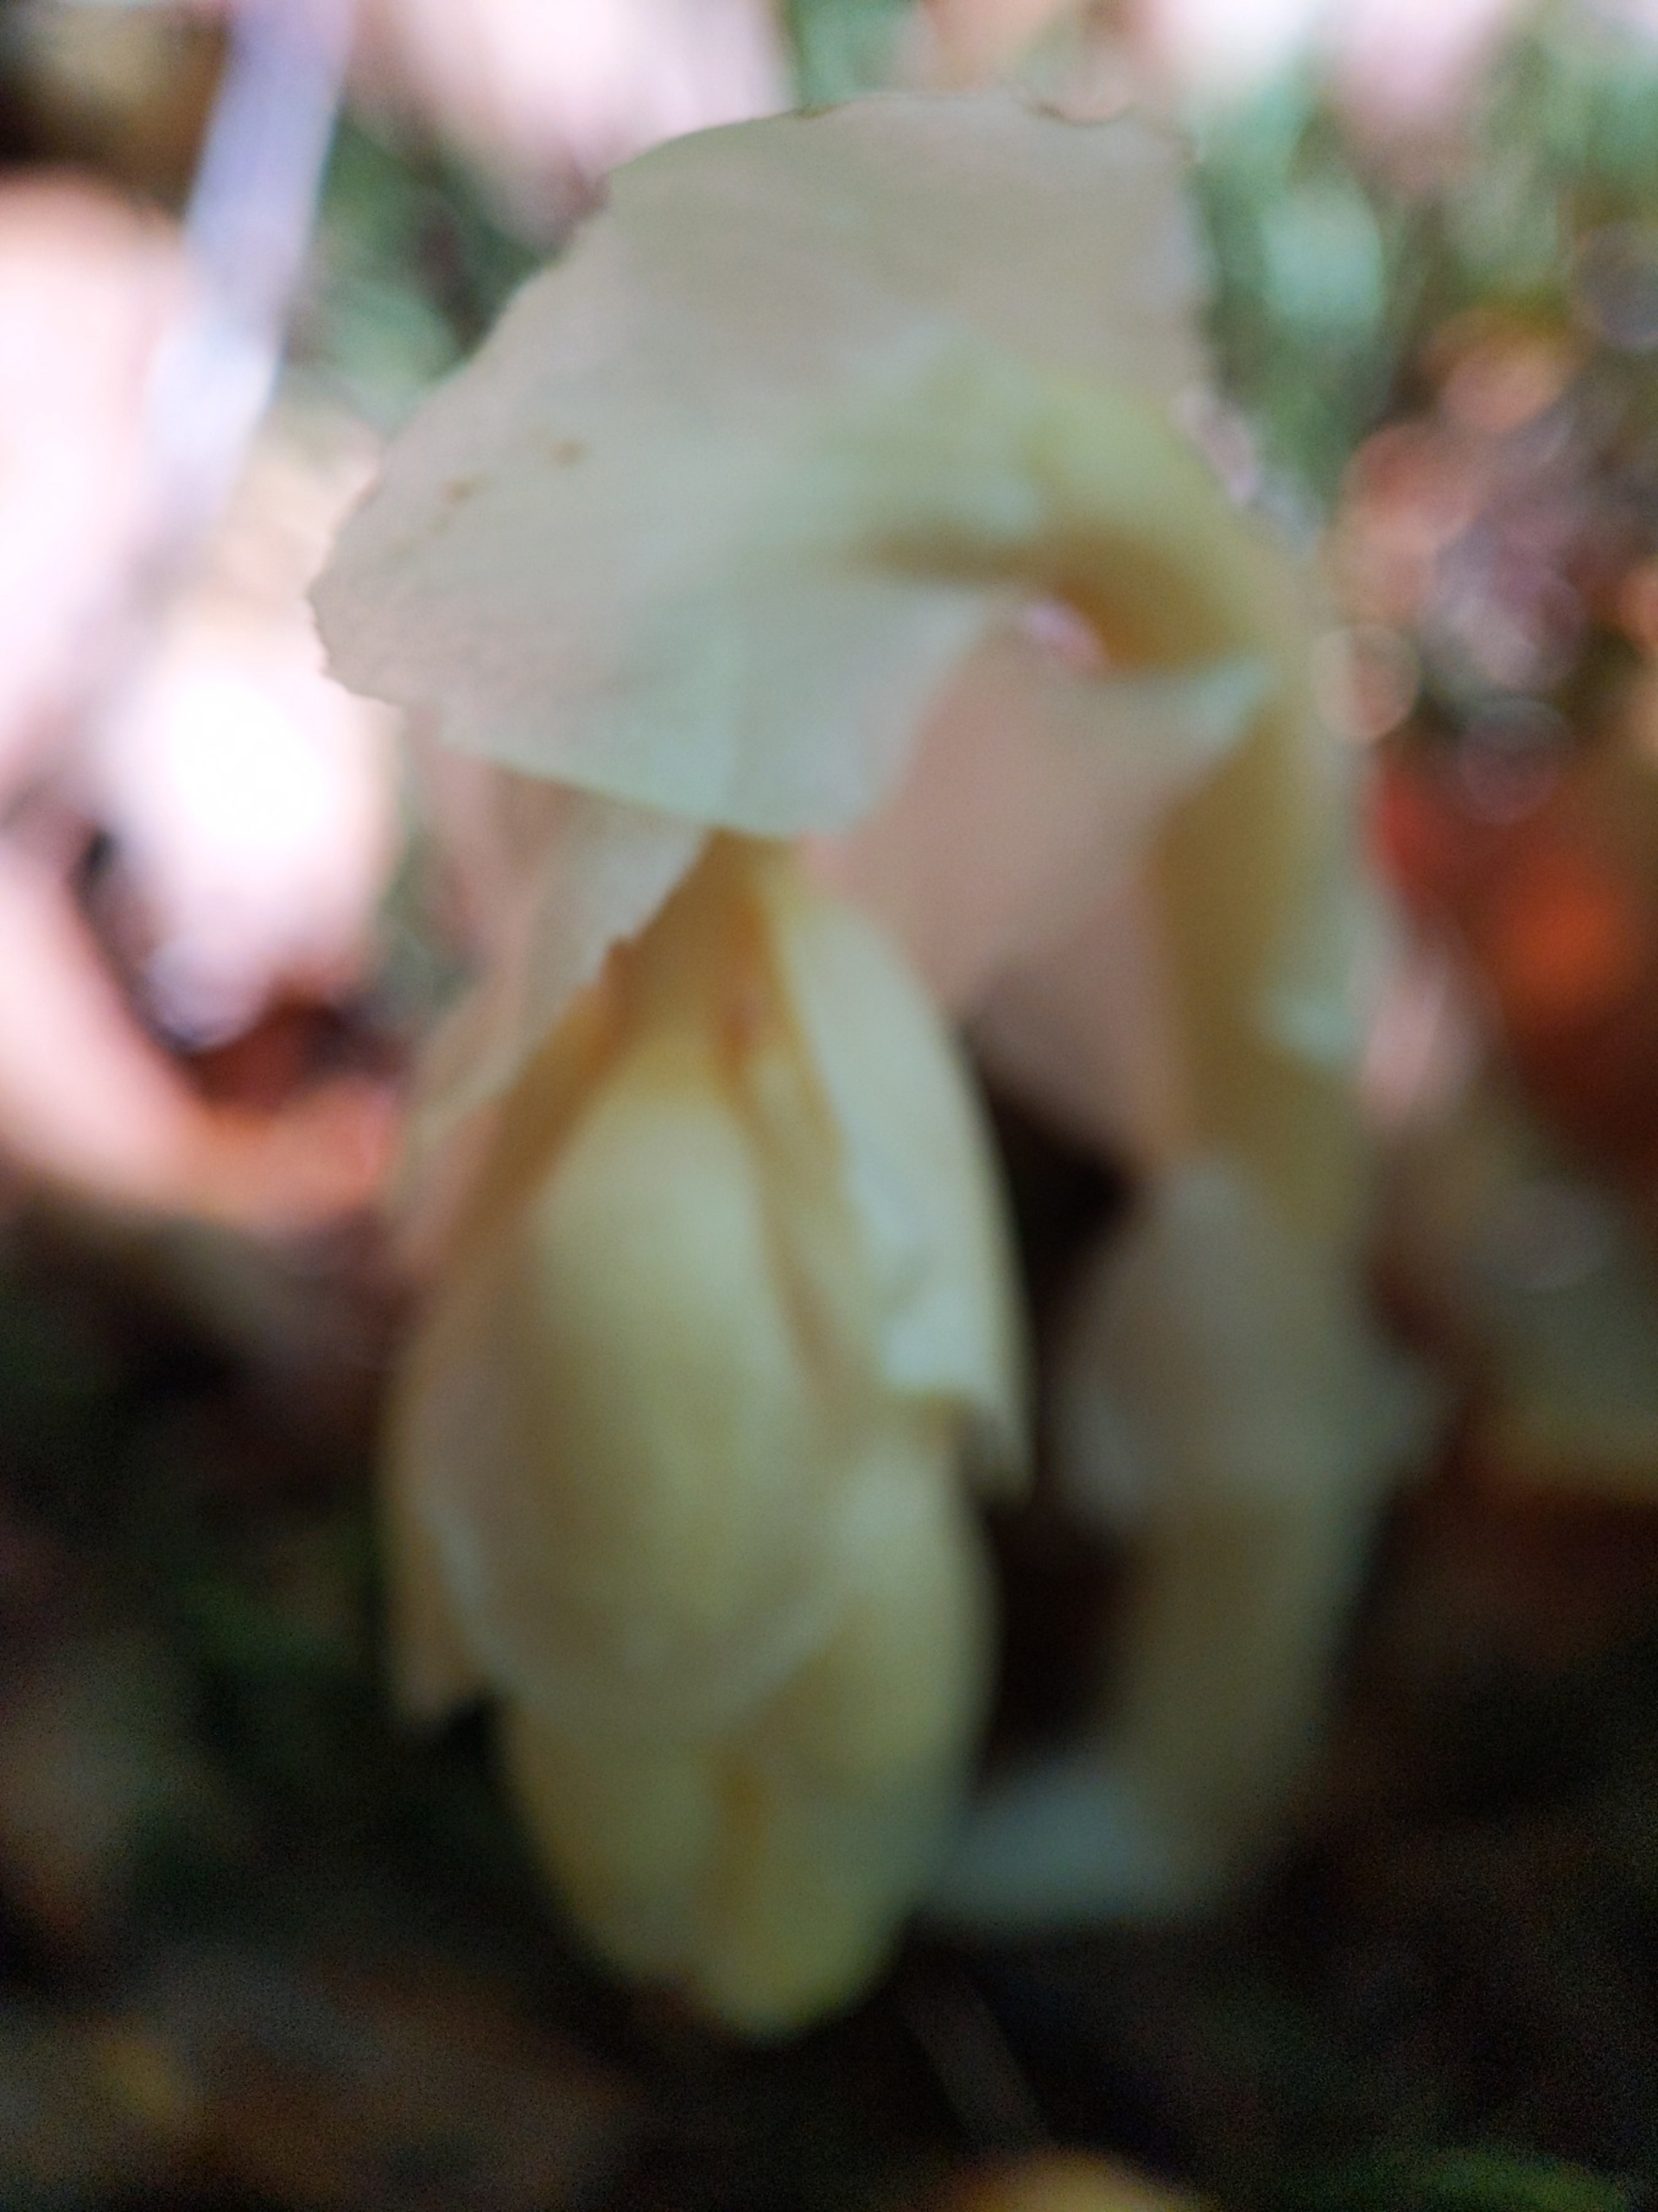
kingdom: Plantae
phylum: Tracheophyta
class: Magnoliopsida
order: Ericales
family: Ericaceae
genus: Hypopitys
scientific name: Hypopitys monotropa
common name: Snylterod
